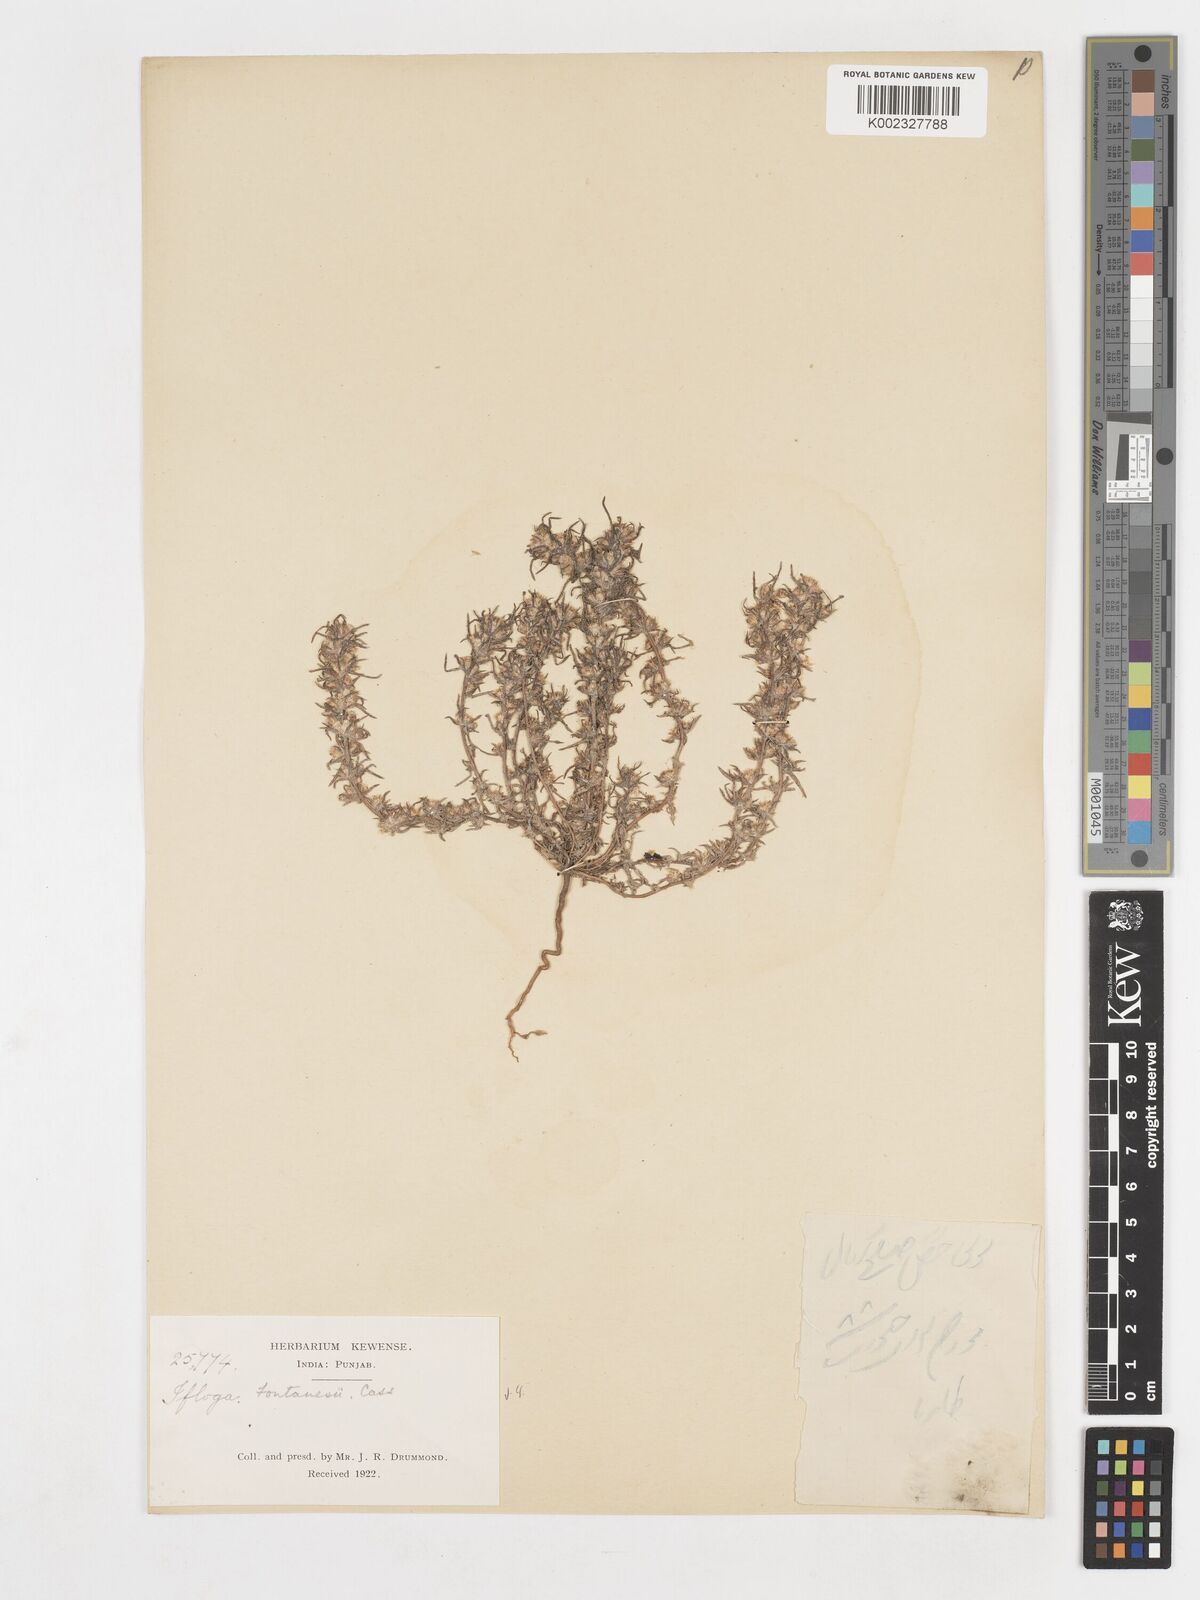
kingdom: Plantae
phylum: Tracheophyta
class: Magnoliopsida
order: Asterales
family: Asteraceae
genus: Ifloga
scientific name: Ifloga spicata
